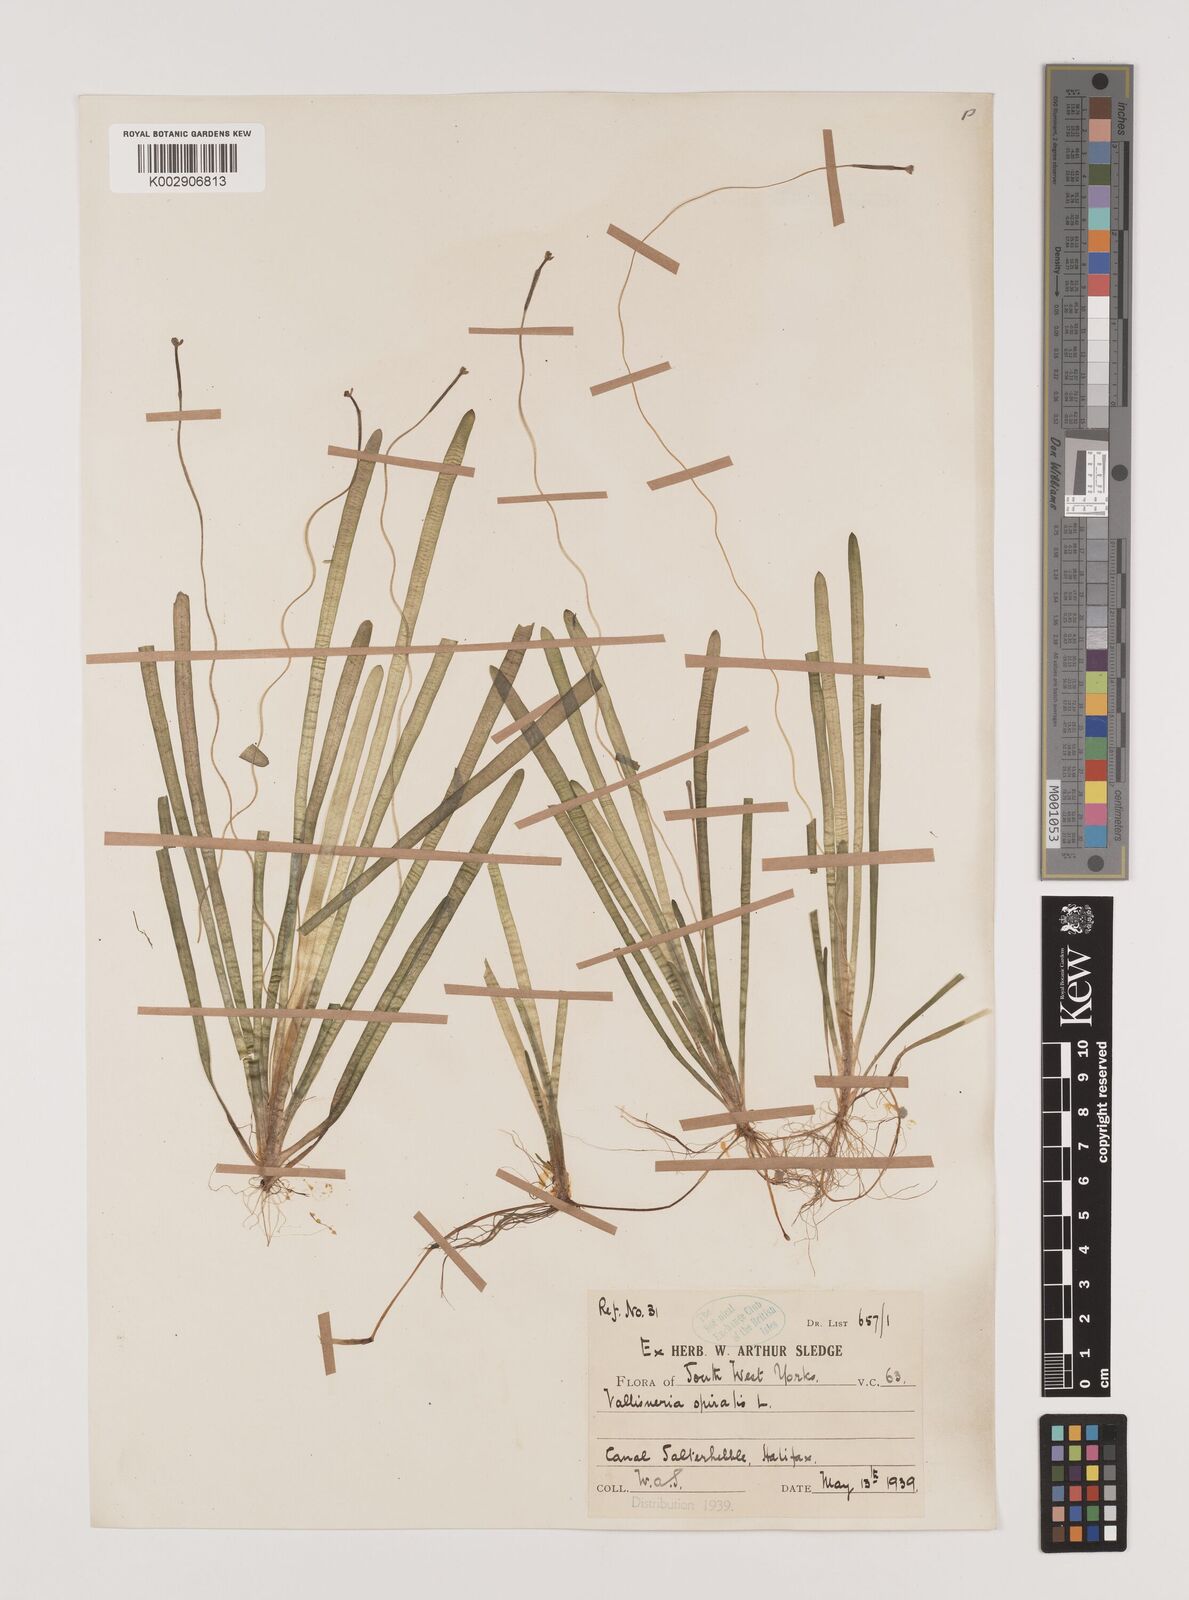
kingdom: Plantae
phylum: Tracheophyta
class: Liliopsida
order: Alismatales
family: Hydrocharitaceae
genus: Vallisneria
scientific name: Vallisneria spiralis
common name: Tapegrass
